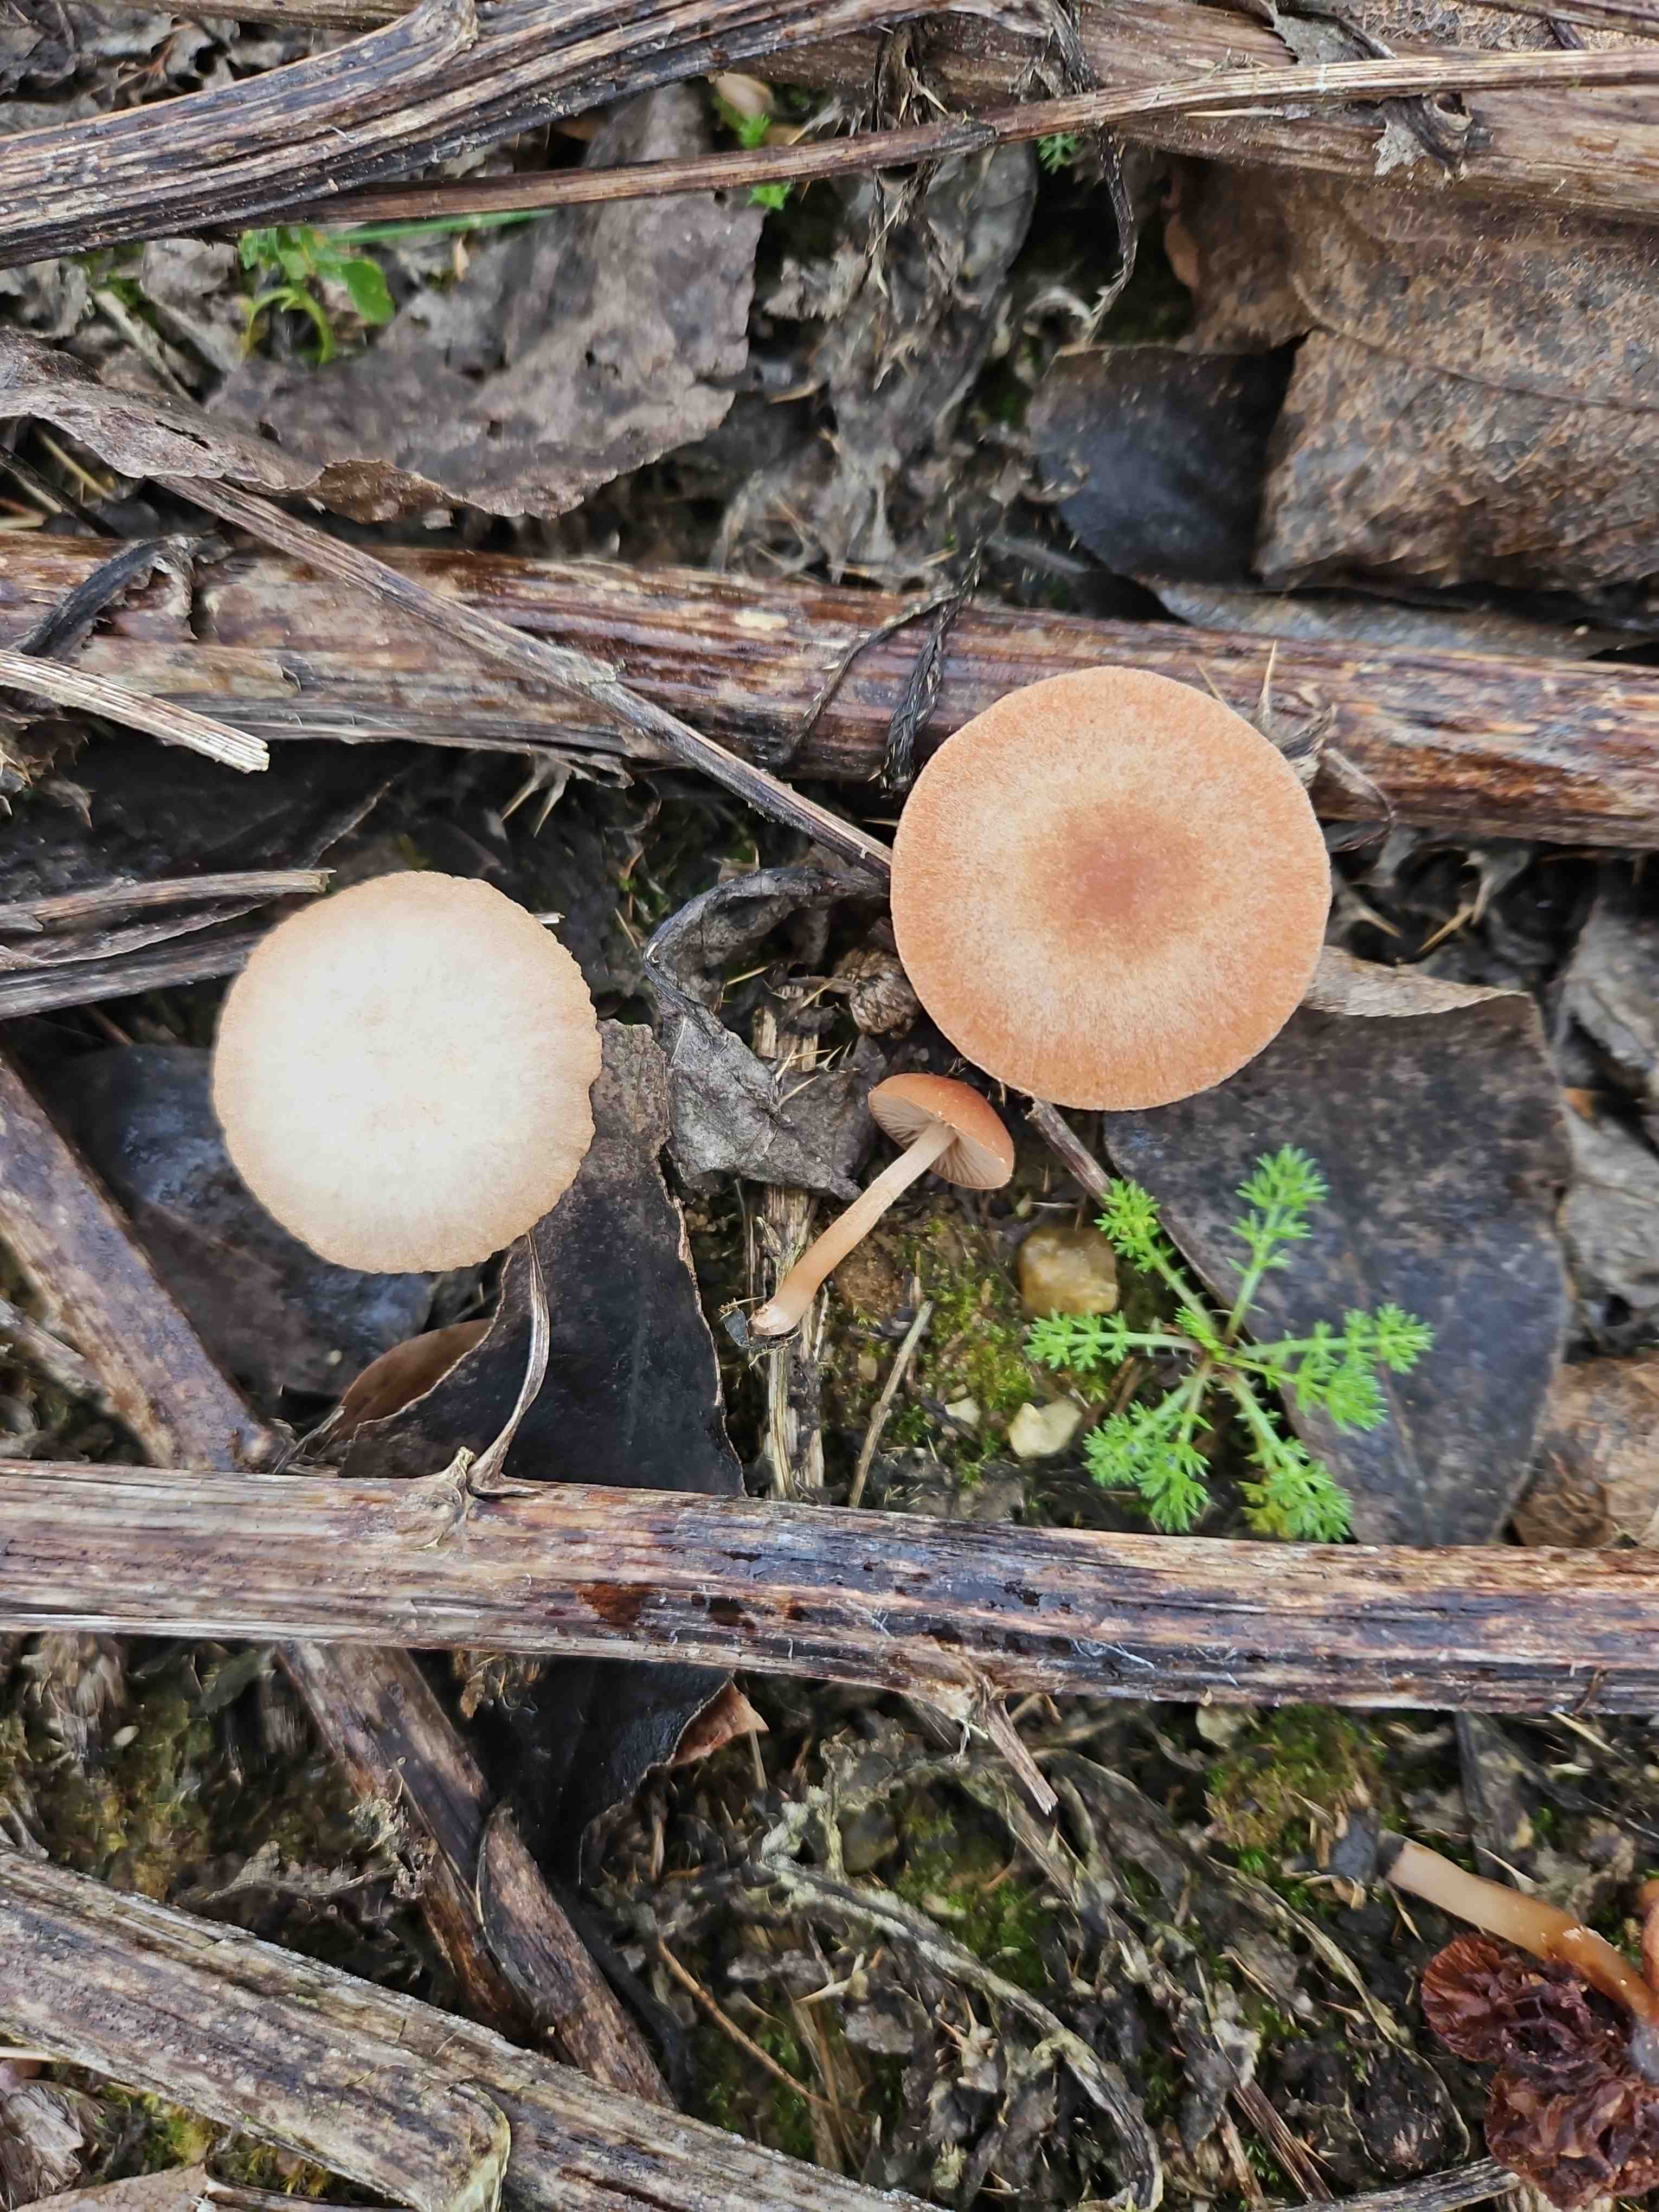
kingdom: Fungi
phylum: Basidiomycota
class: Agaricomycetes
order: Agaricales
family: Tubariaceae
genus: Tubaria
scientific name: Tubaria furfuracea
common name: kliddet fnughat
